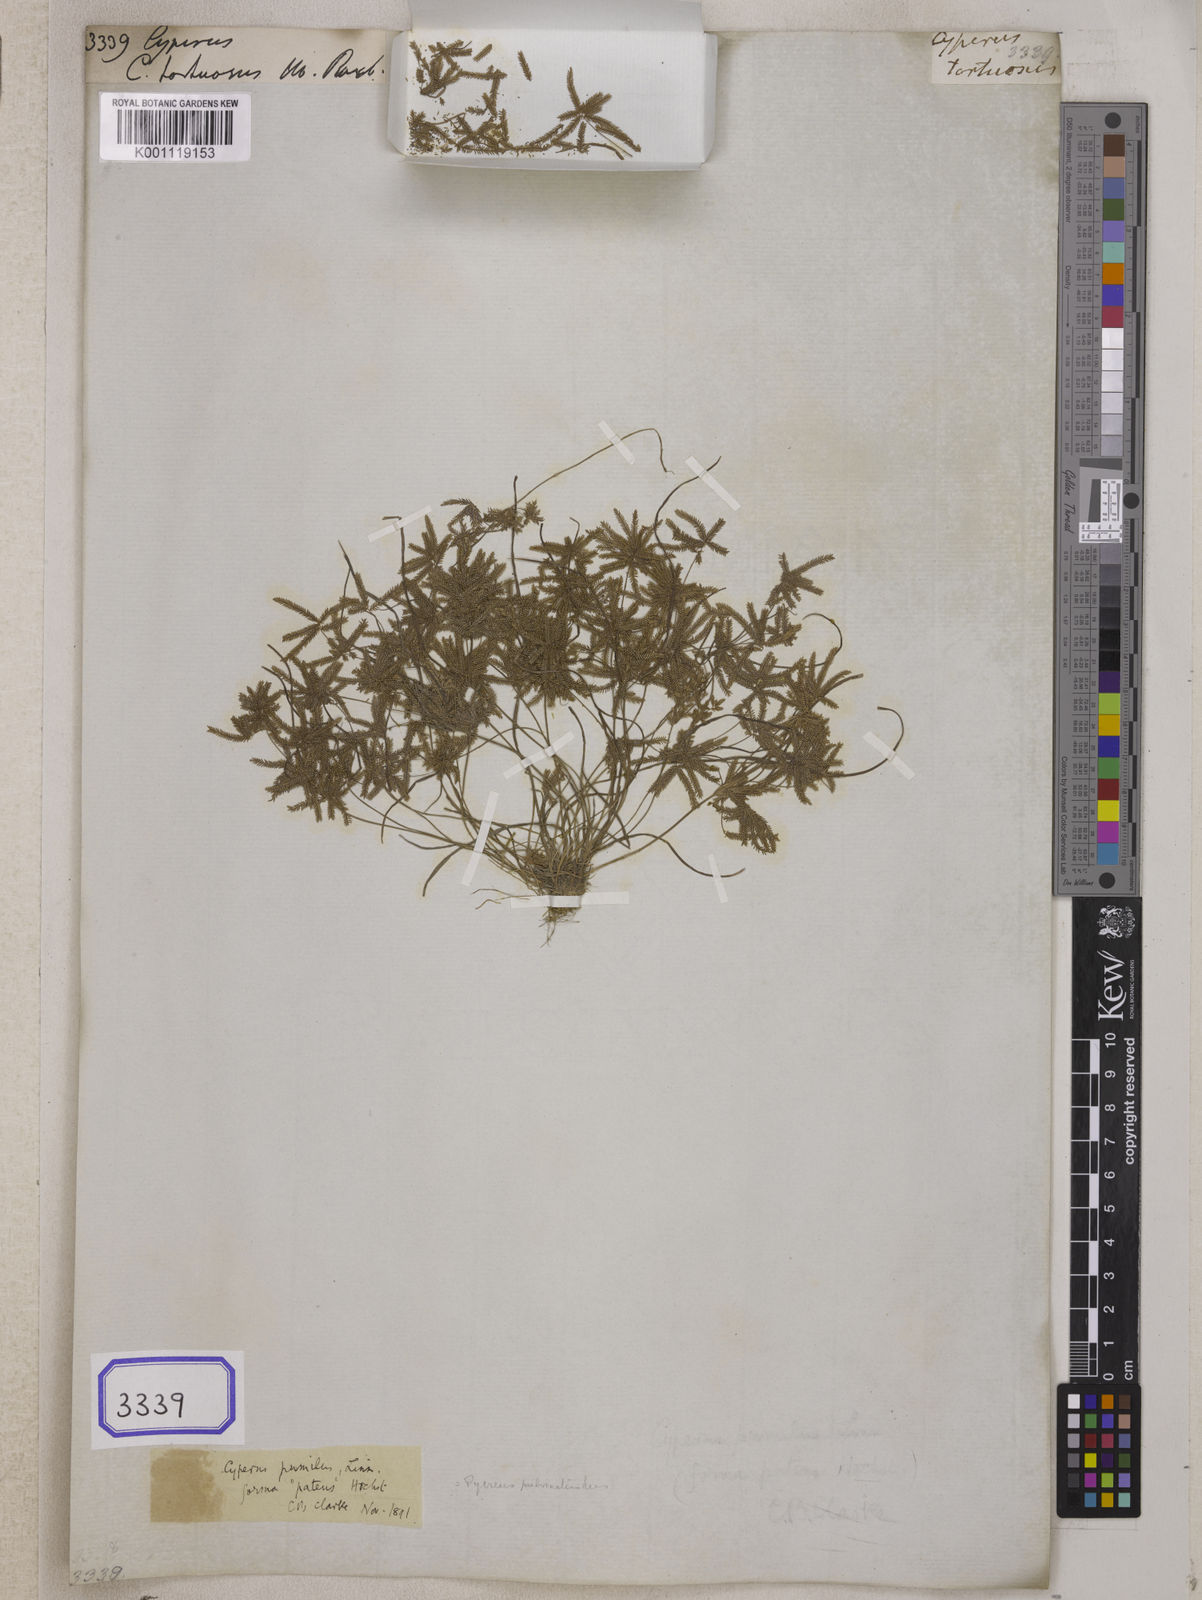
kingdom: Plantae
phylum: Tracheophyta
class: Liliopsida
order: Poales
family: Cyperaceae
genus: Cyperus
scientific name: Cyperus
